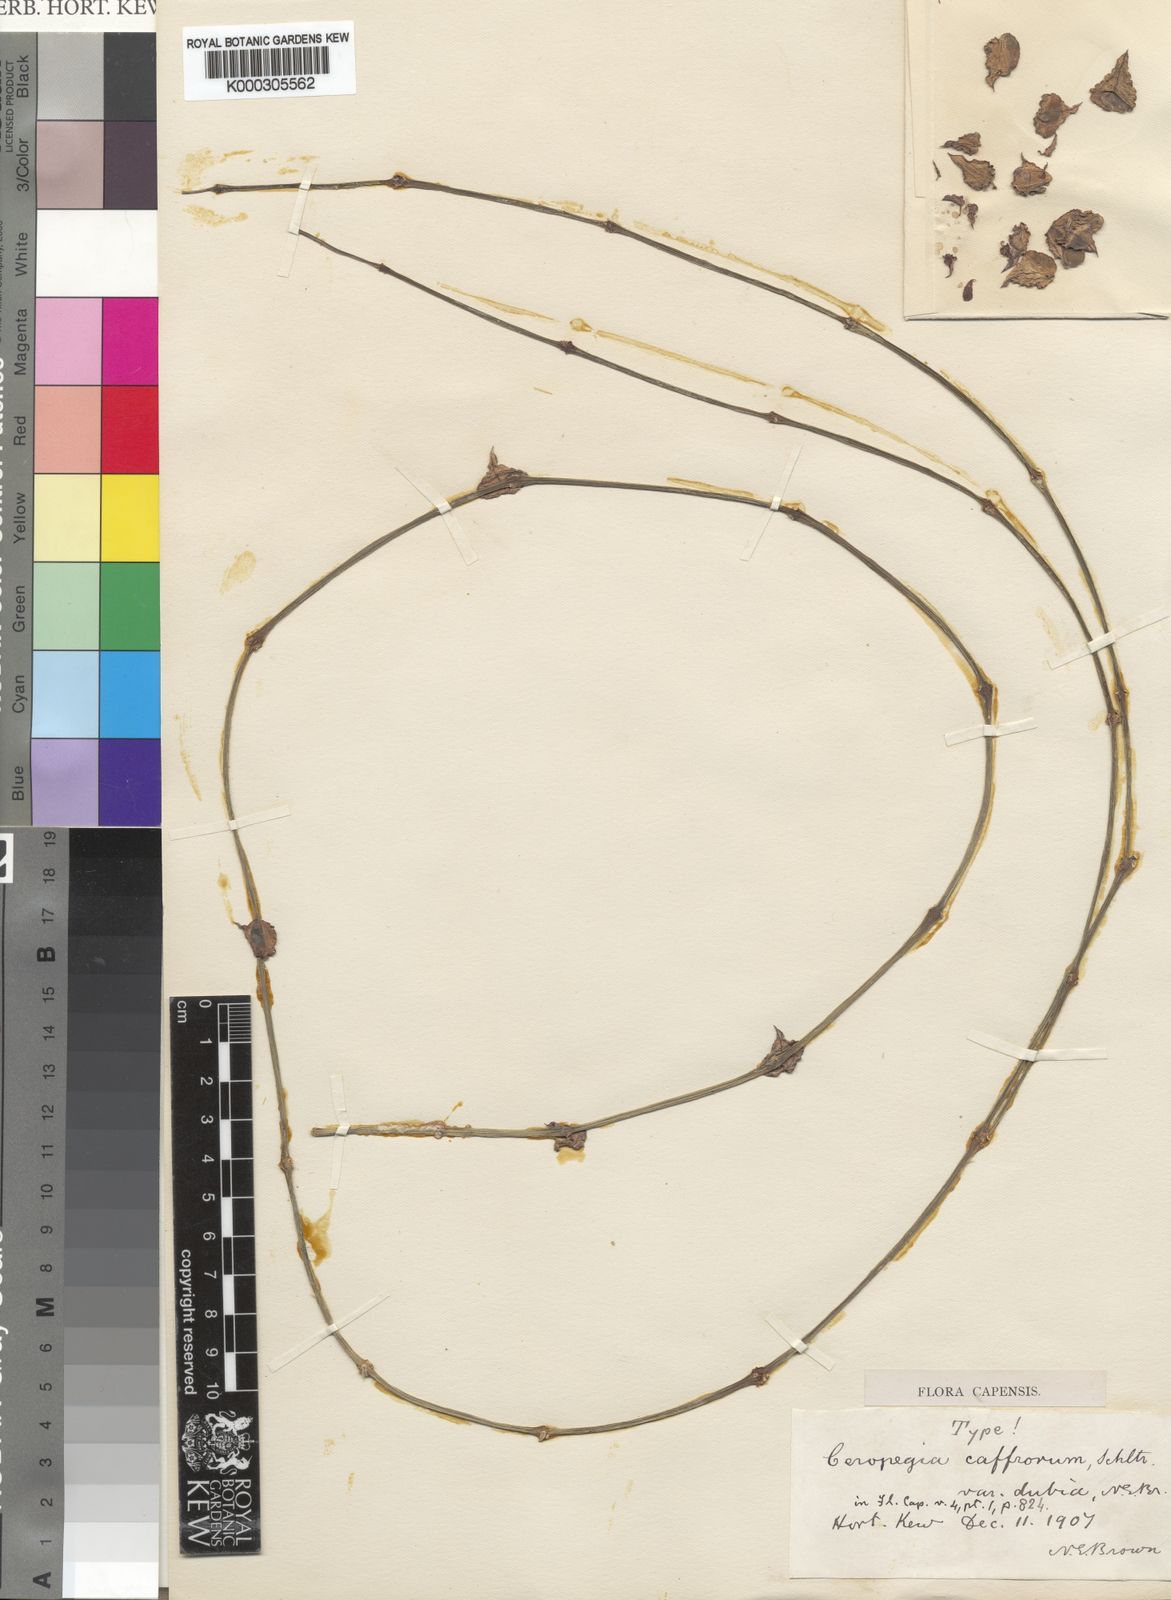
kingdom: Plantae
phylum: Tracheophyta
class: Magnoliopsida
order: Gentianales
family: Apocynaceae
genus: Ceropegia
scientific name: Ceropegia linearis
